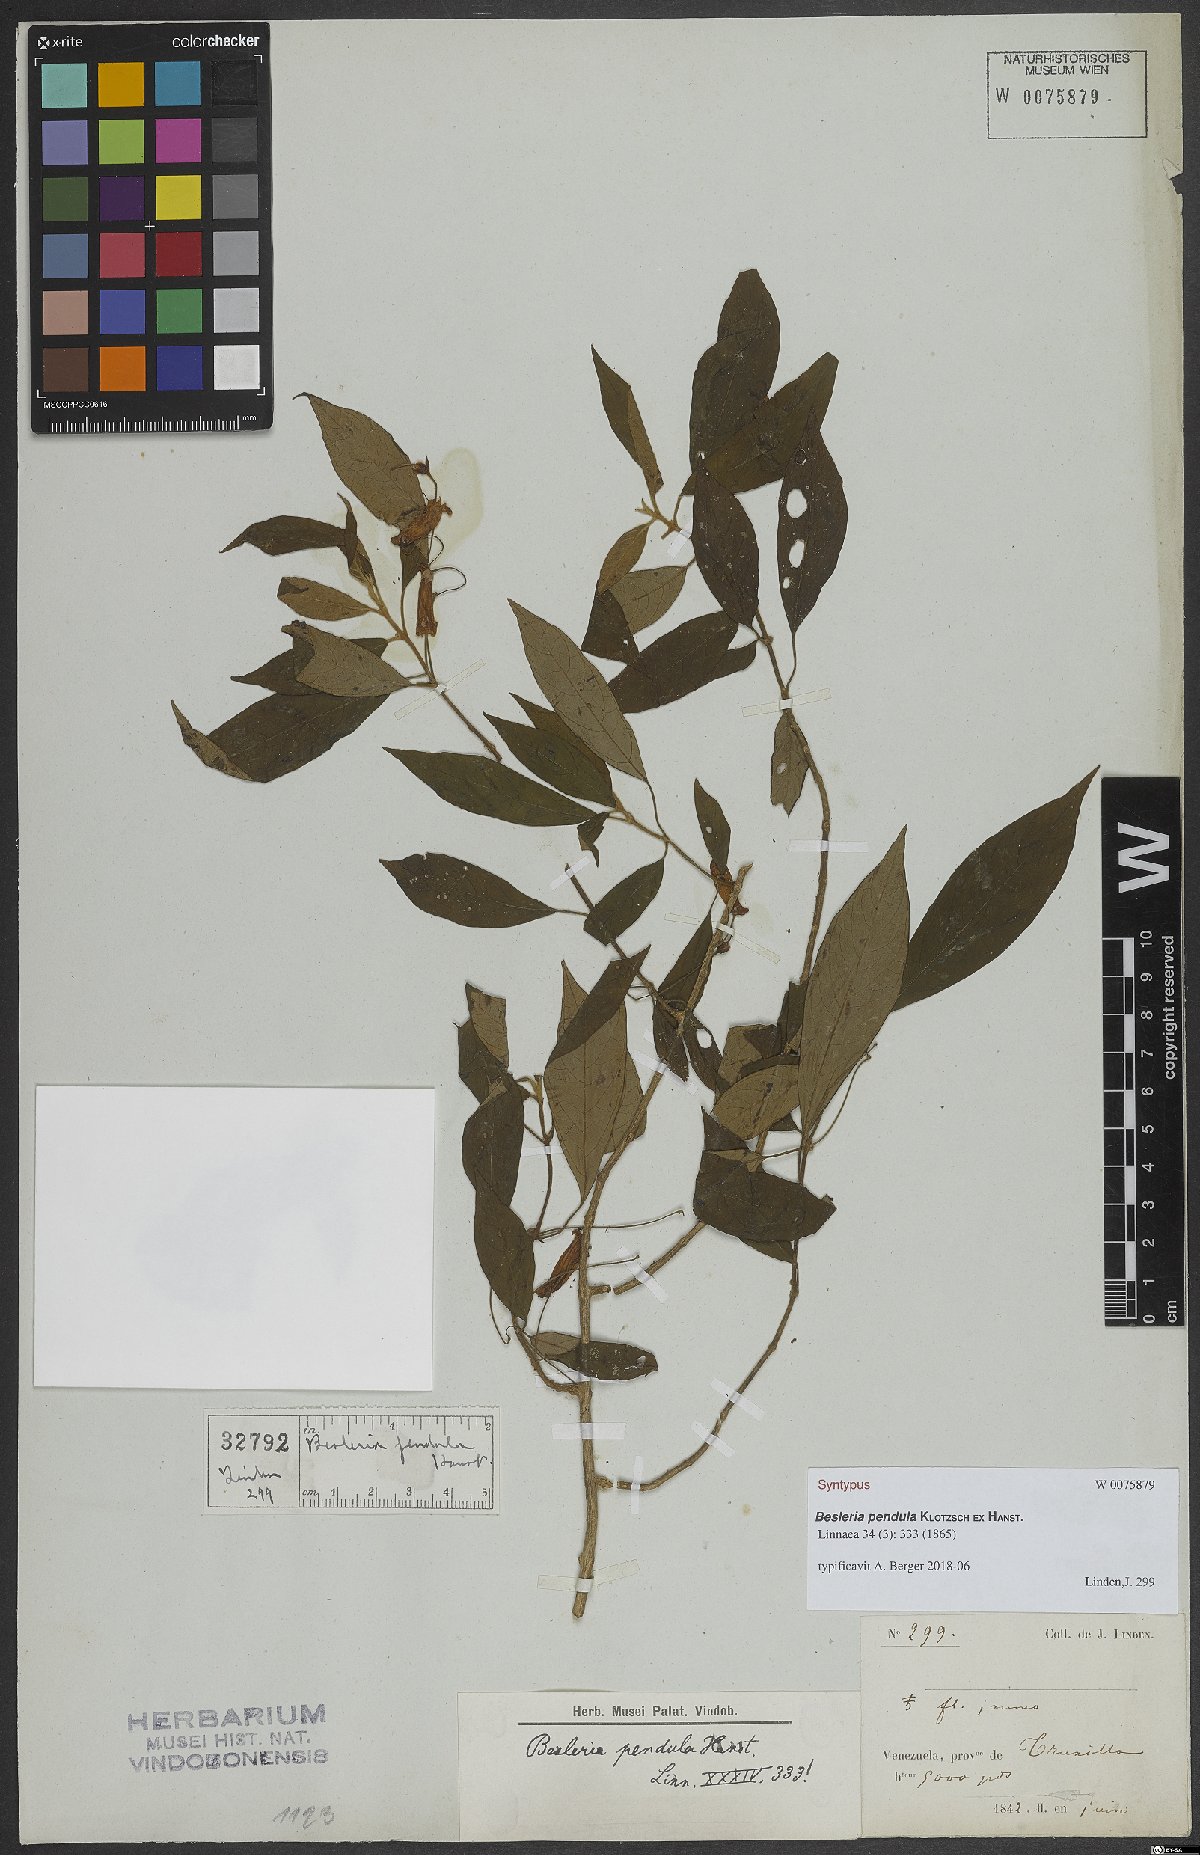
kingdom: Plantae
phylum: Tracheophyta
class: Magnoliopsida
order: Lamiales
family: Gesneriaceae
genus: Besleria
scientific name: Besleria pendula
